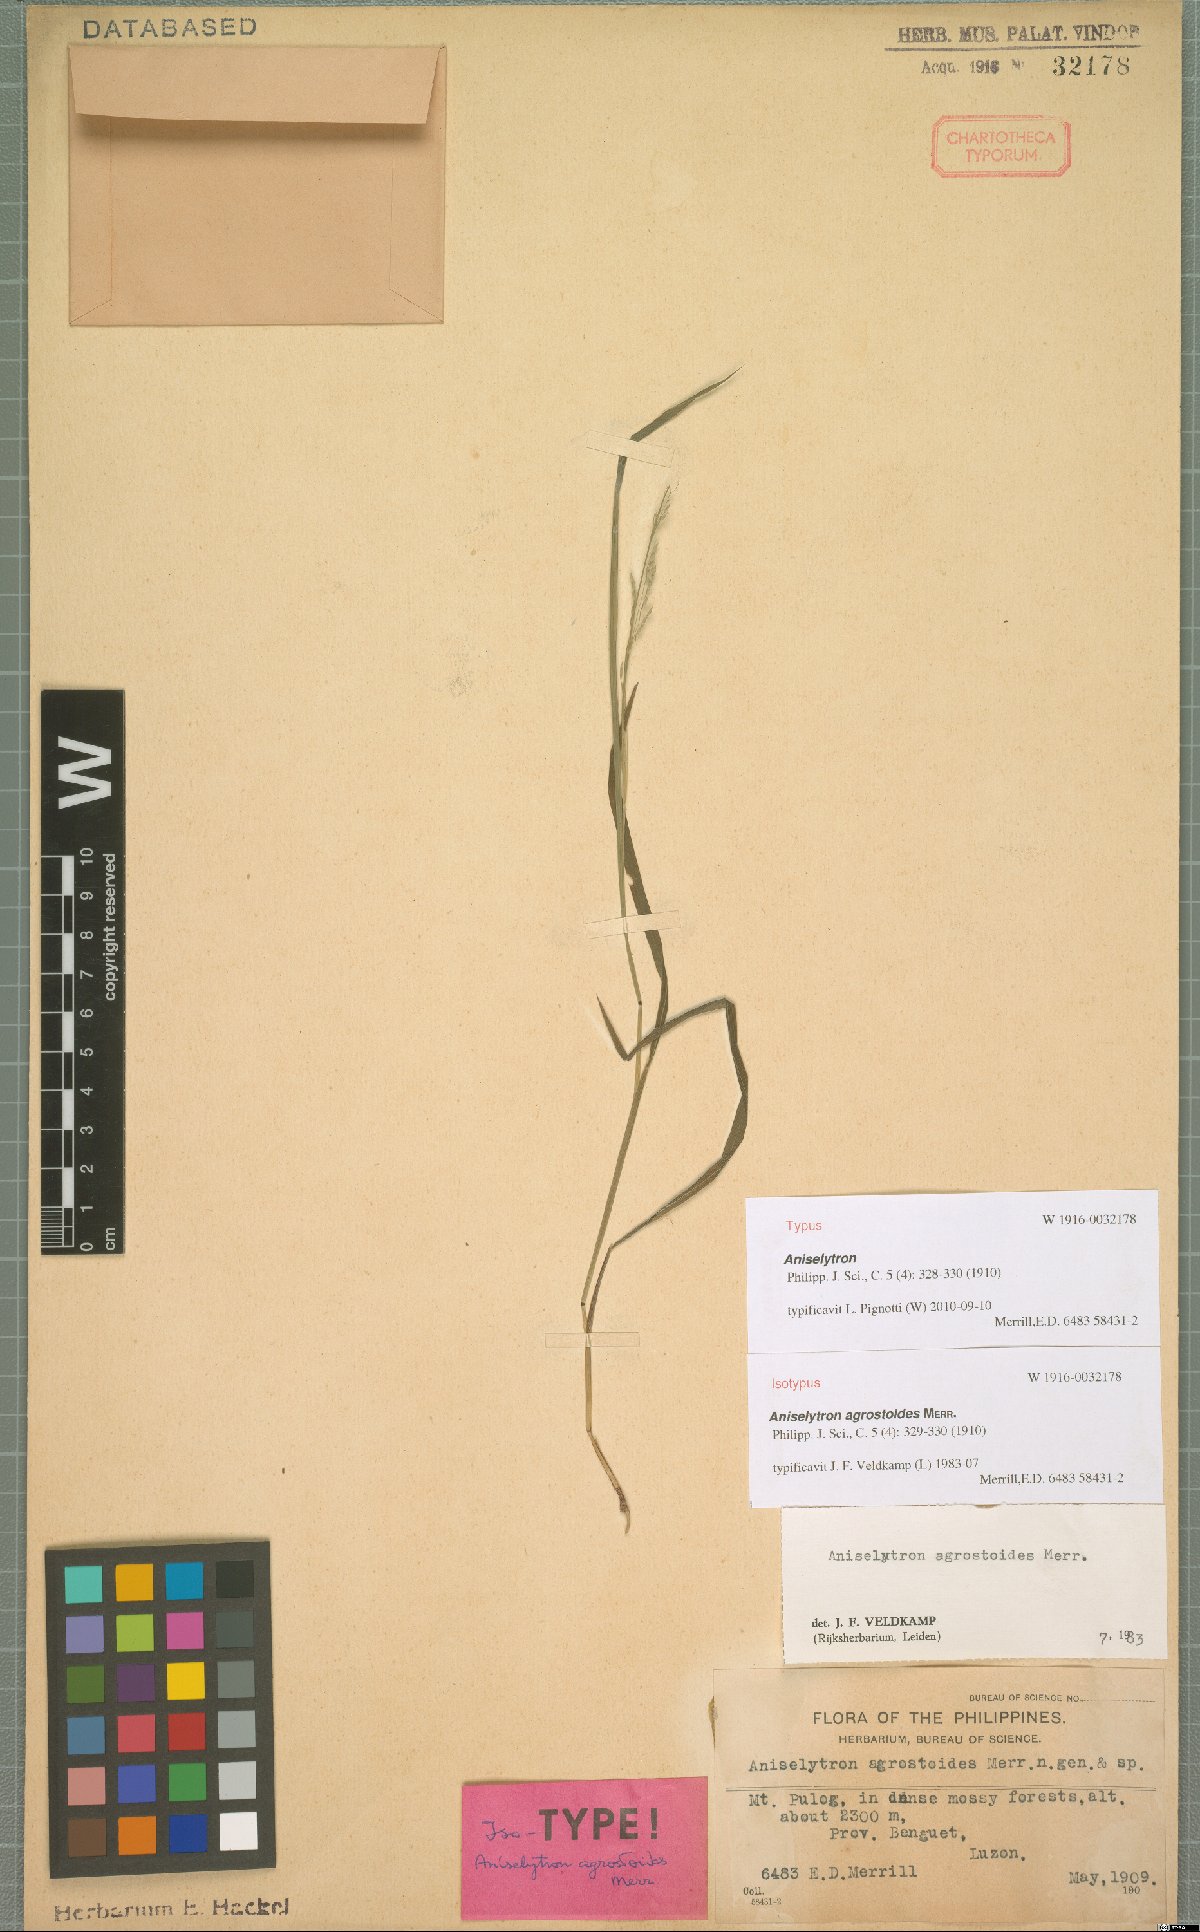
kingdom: Plantae
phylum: Tracheophyta
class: Liliopsida
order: Poales
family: Poaceae
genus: Aniselytron
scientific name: Aniselytron agrostoides
